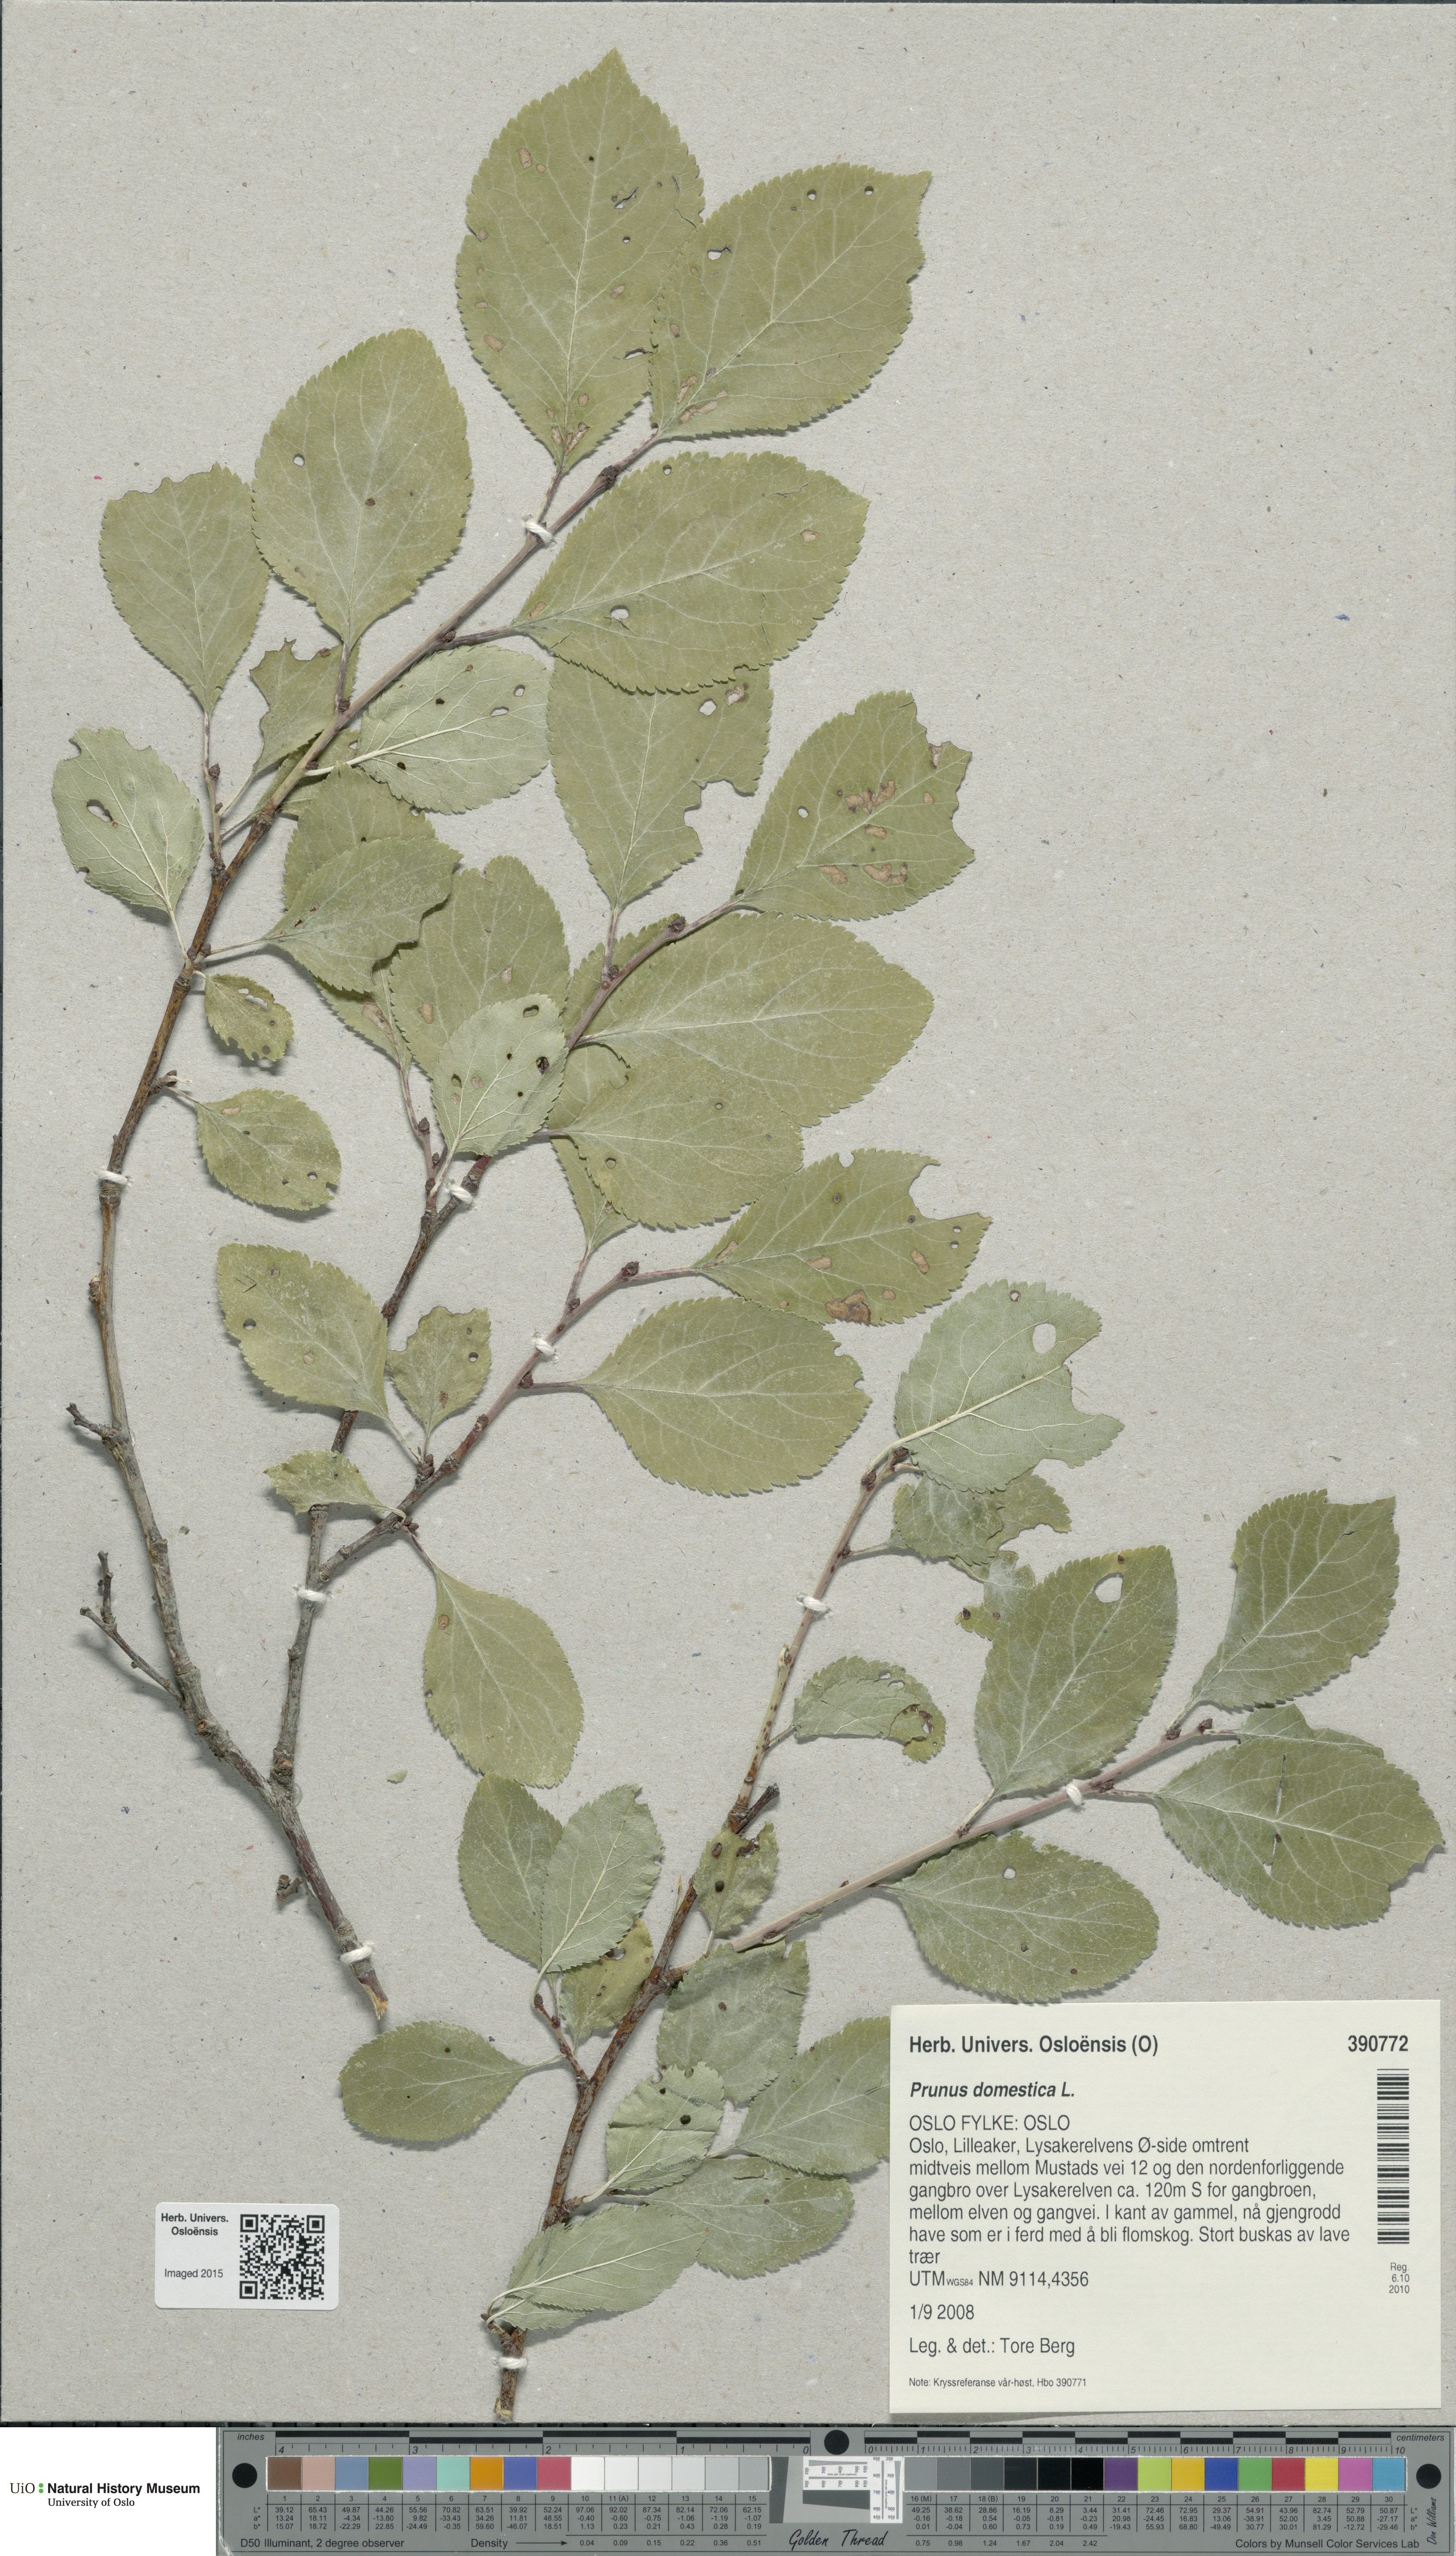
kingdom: Plantae
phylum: Tracheophyta
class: Magnoliopsida
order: Rosales
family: Rosaceae
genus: Prunus
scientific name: Prunus domestica
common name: Wild plum
